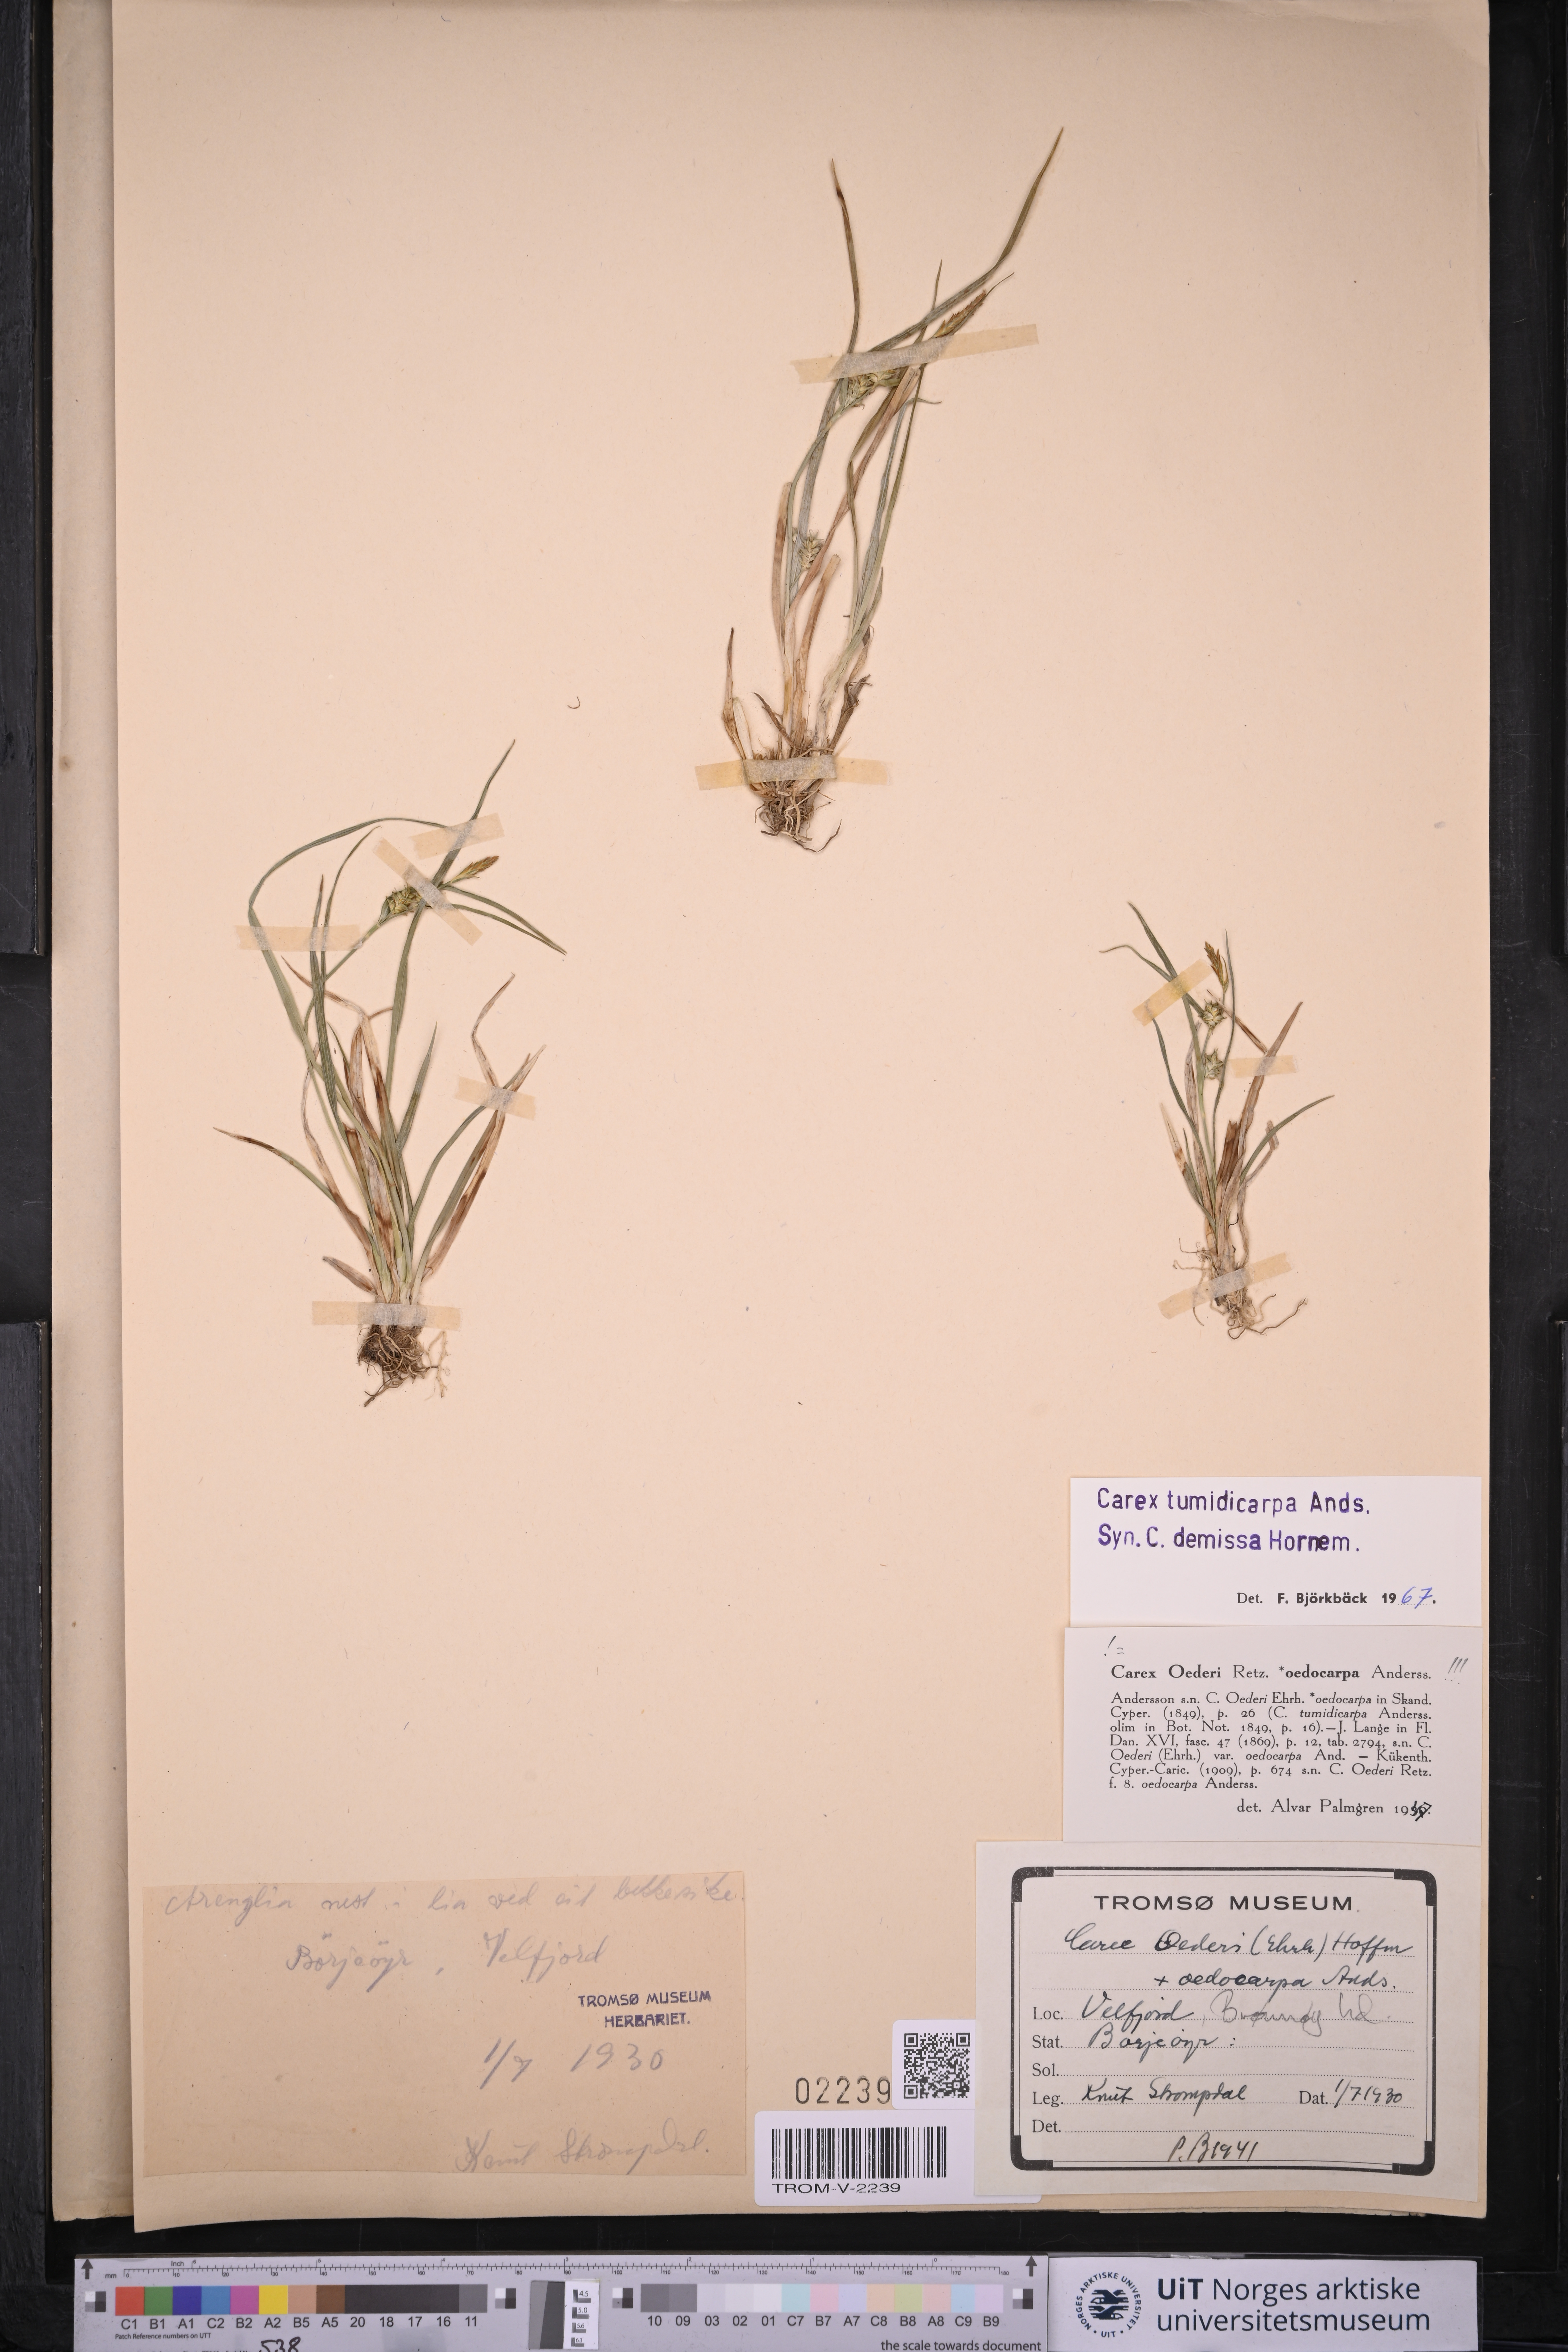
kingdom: Plantae
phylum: Tracheophyta
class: Liliopsida
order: Poales
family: Cyperaceae
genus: Carex
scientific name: Carex demissa
